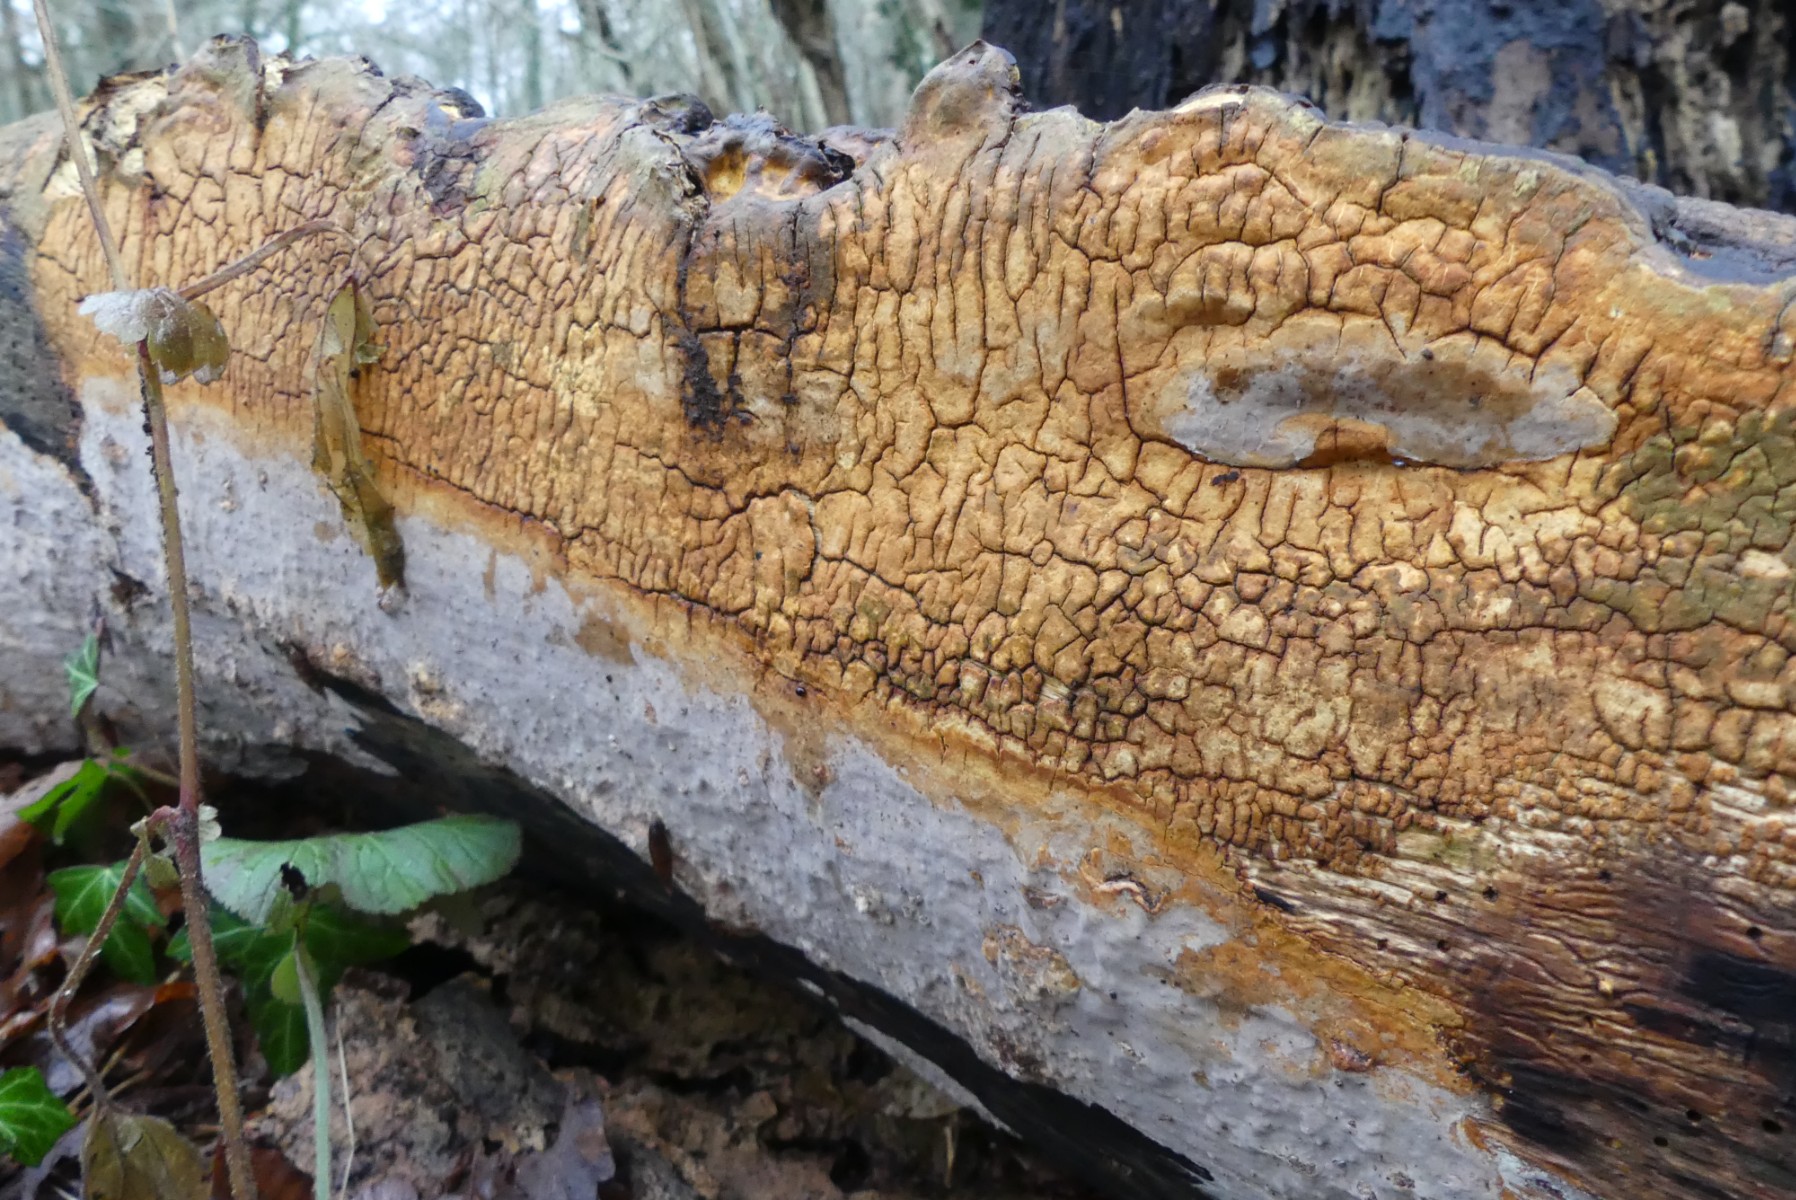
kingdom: Fungi
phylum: Basidiomycota
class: Agaricomycetes
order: Russulales
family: Peniophoraceae
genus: Scytinostroma
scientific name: Scytinostroma hemidichophyticum
